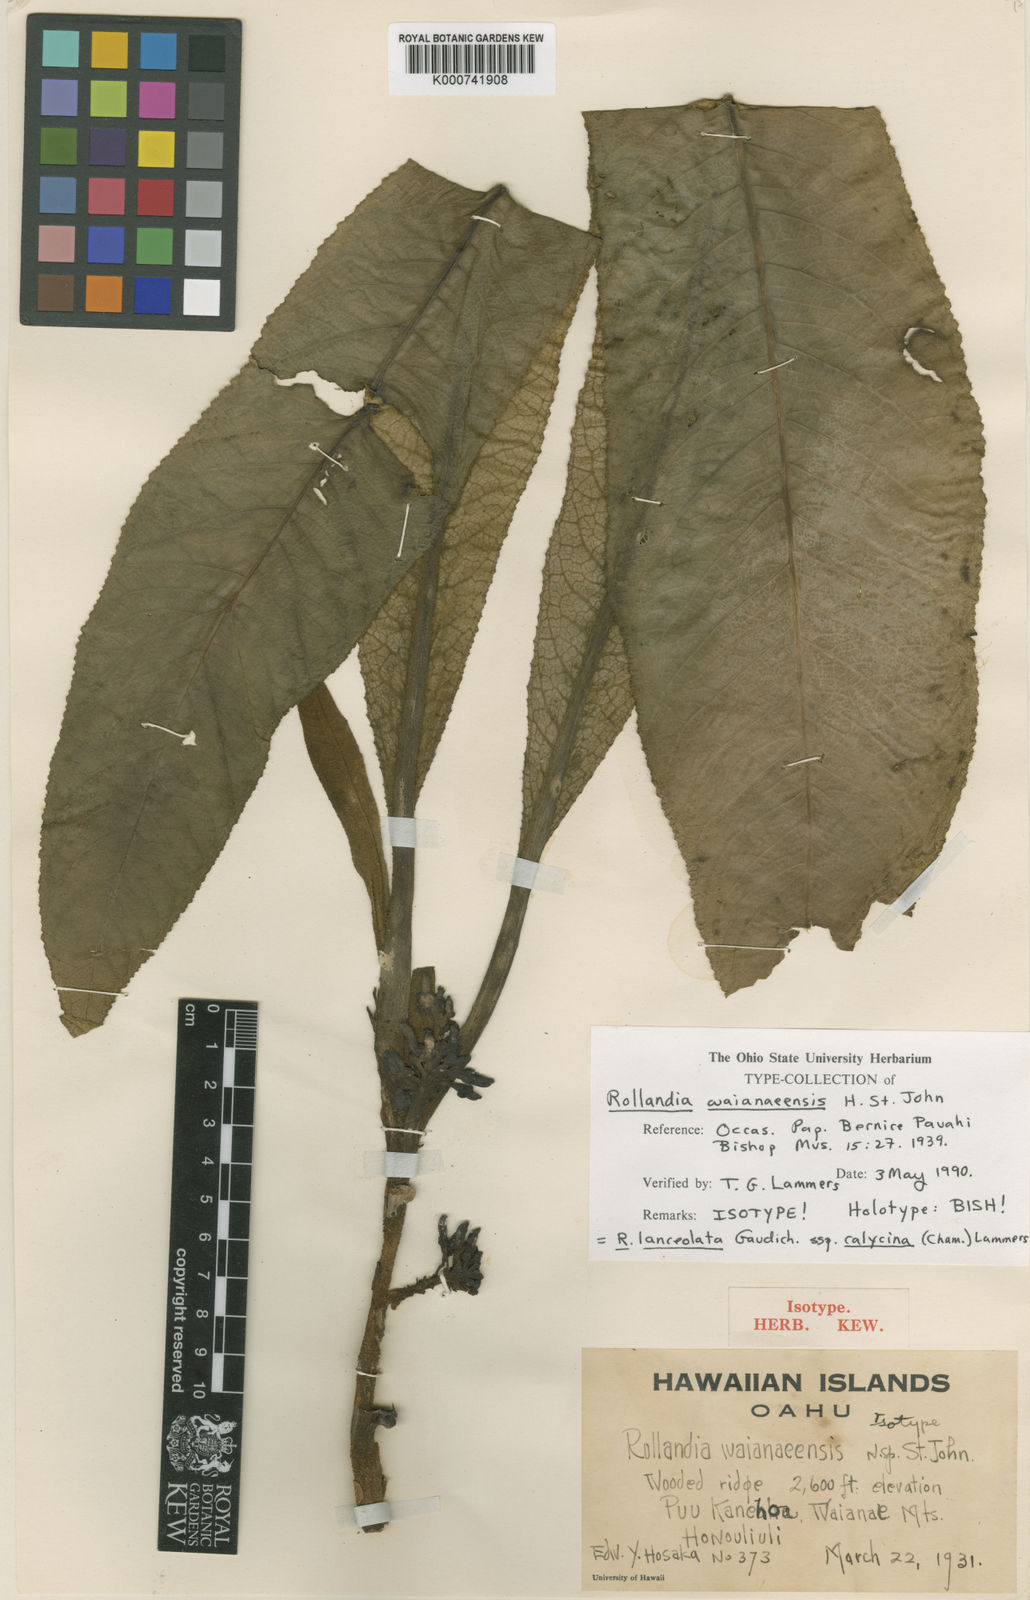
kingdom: Plantae
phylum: Tracheophyta
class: Magnoliopsida
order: Asterales
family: Campanulaceae
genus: Cyanea
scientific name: Cyanea lanceolata
